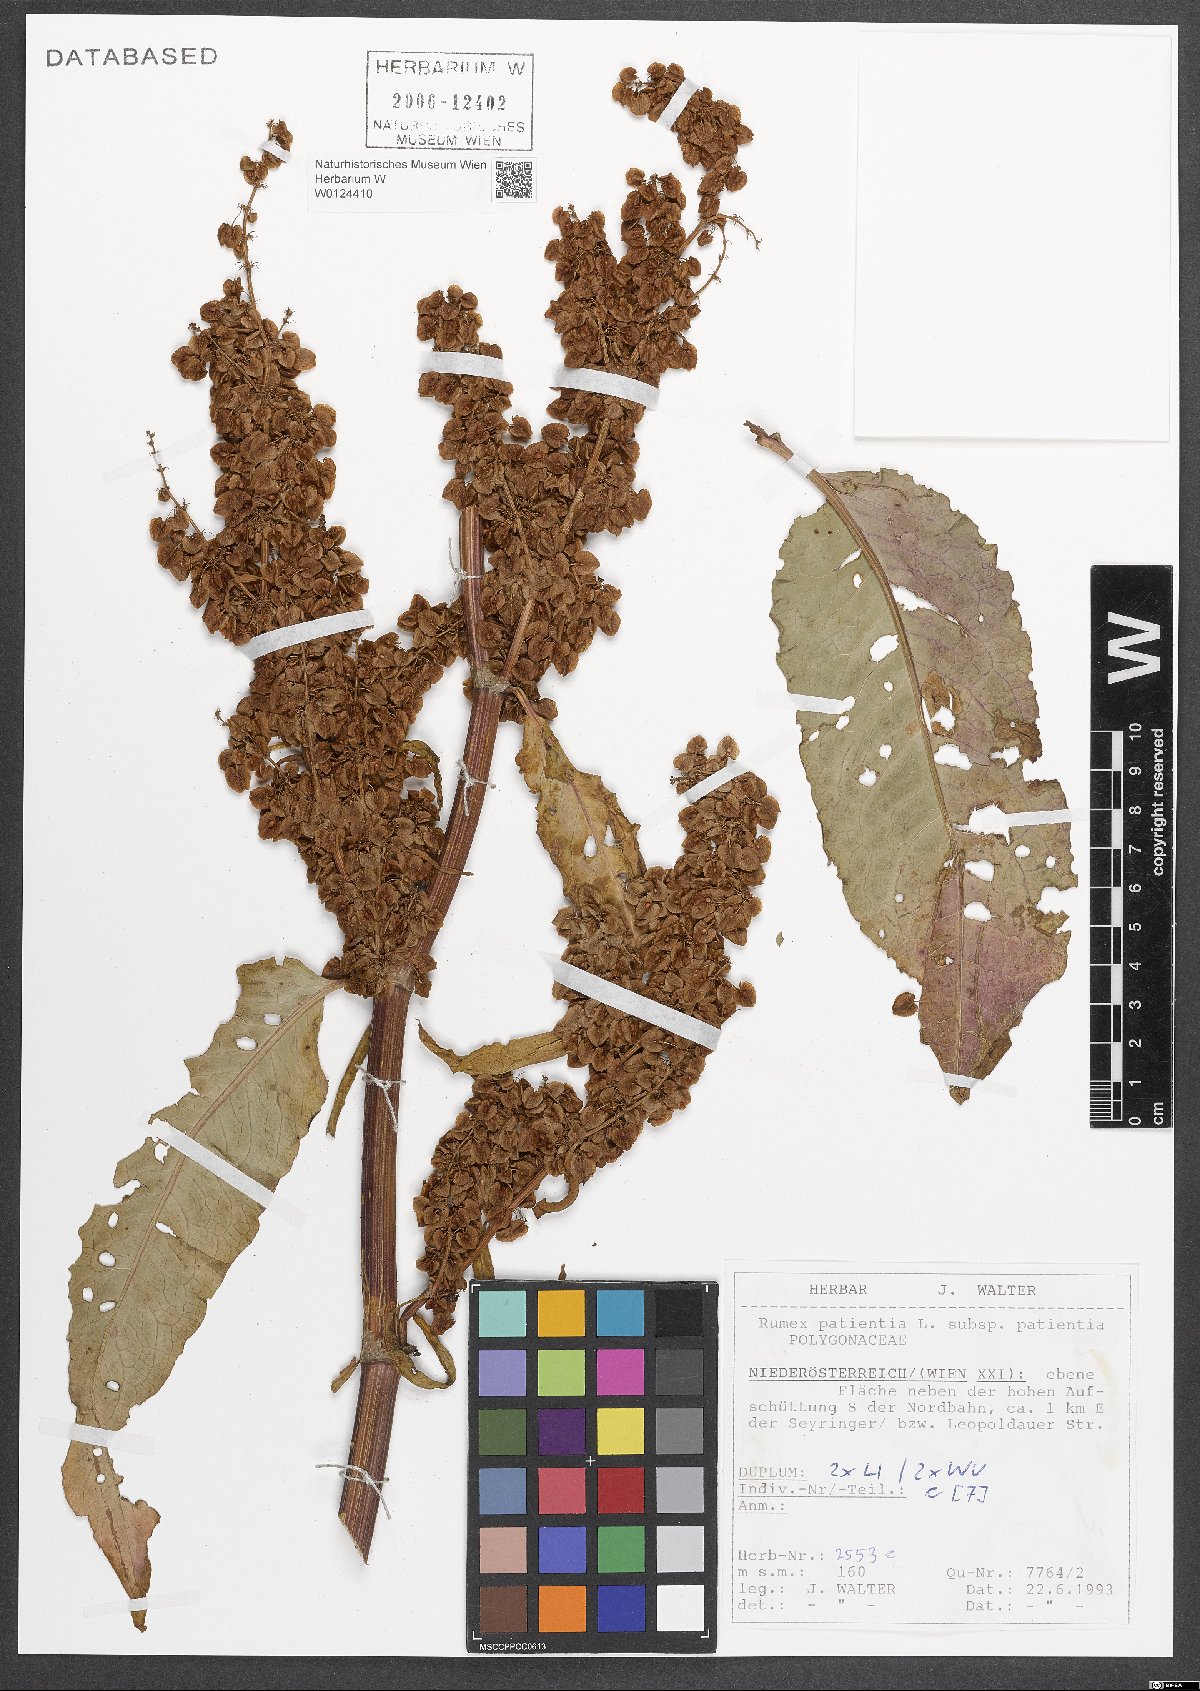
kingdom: Plantae
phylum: Tracheophyta
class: Magnoliopsida
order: Caryophyllales
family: Polygonaceae
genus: Rumex
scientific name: Rumex patientia
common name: Patience dock
